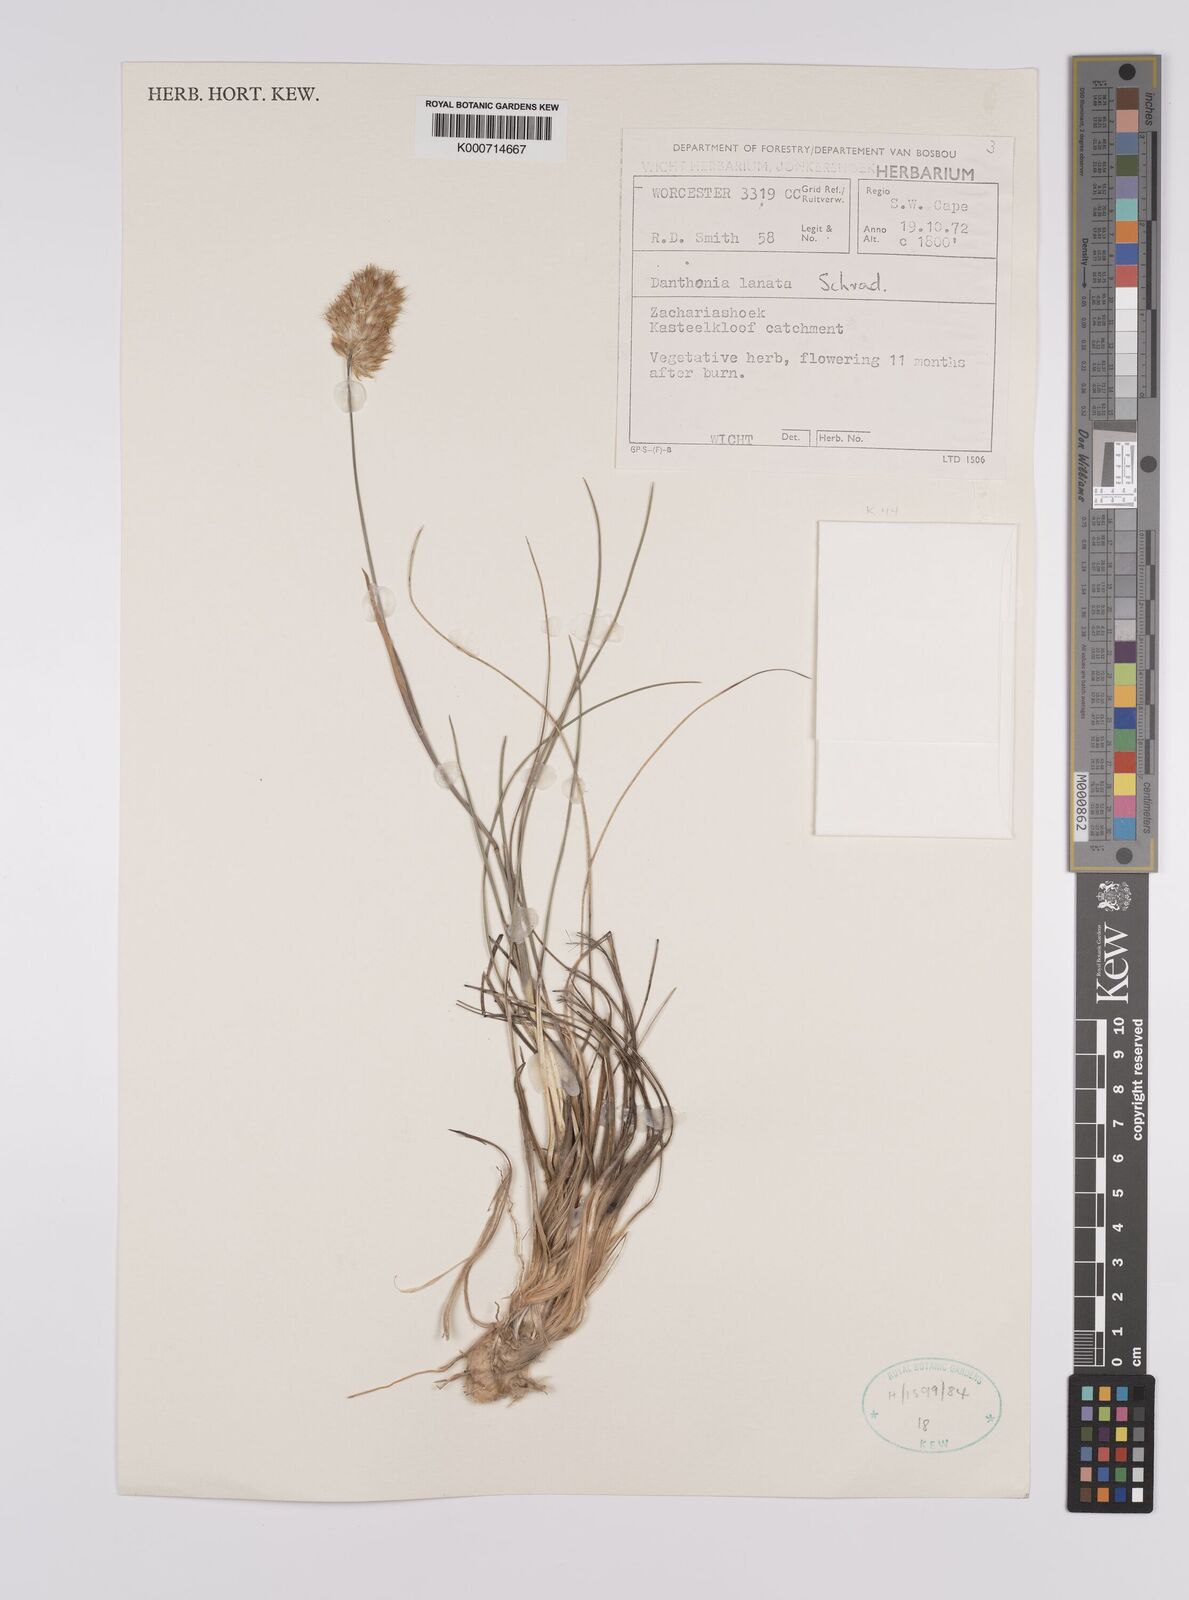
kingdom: Plantae
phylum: Tracheophyta
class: Liliopsida
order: Poales
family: Poaceae
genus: Rytidosperma
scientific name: Rytidosperma
